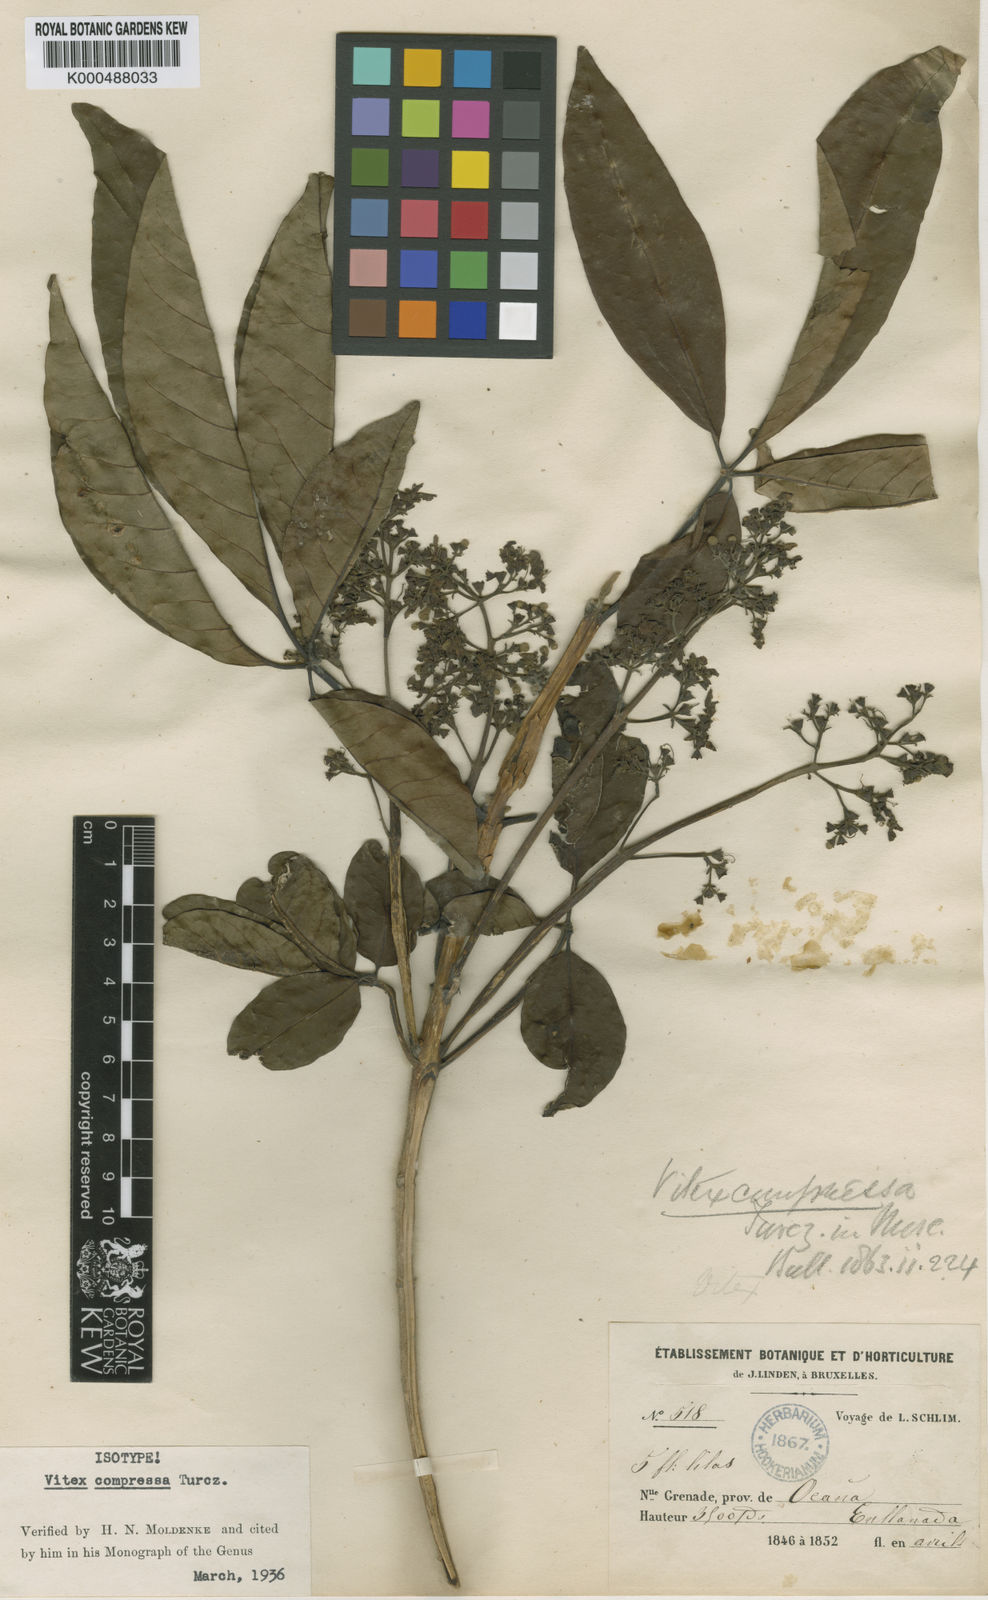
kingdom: Plantae
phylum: Tracheophyta
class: Magnoliopsida
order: Lamiales
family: Lamiaceae
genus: Vitex
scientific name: Vitex compressa
